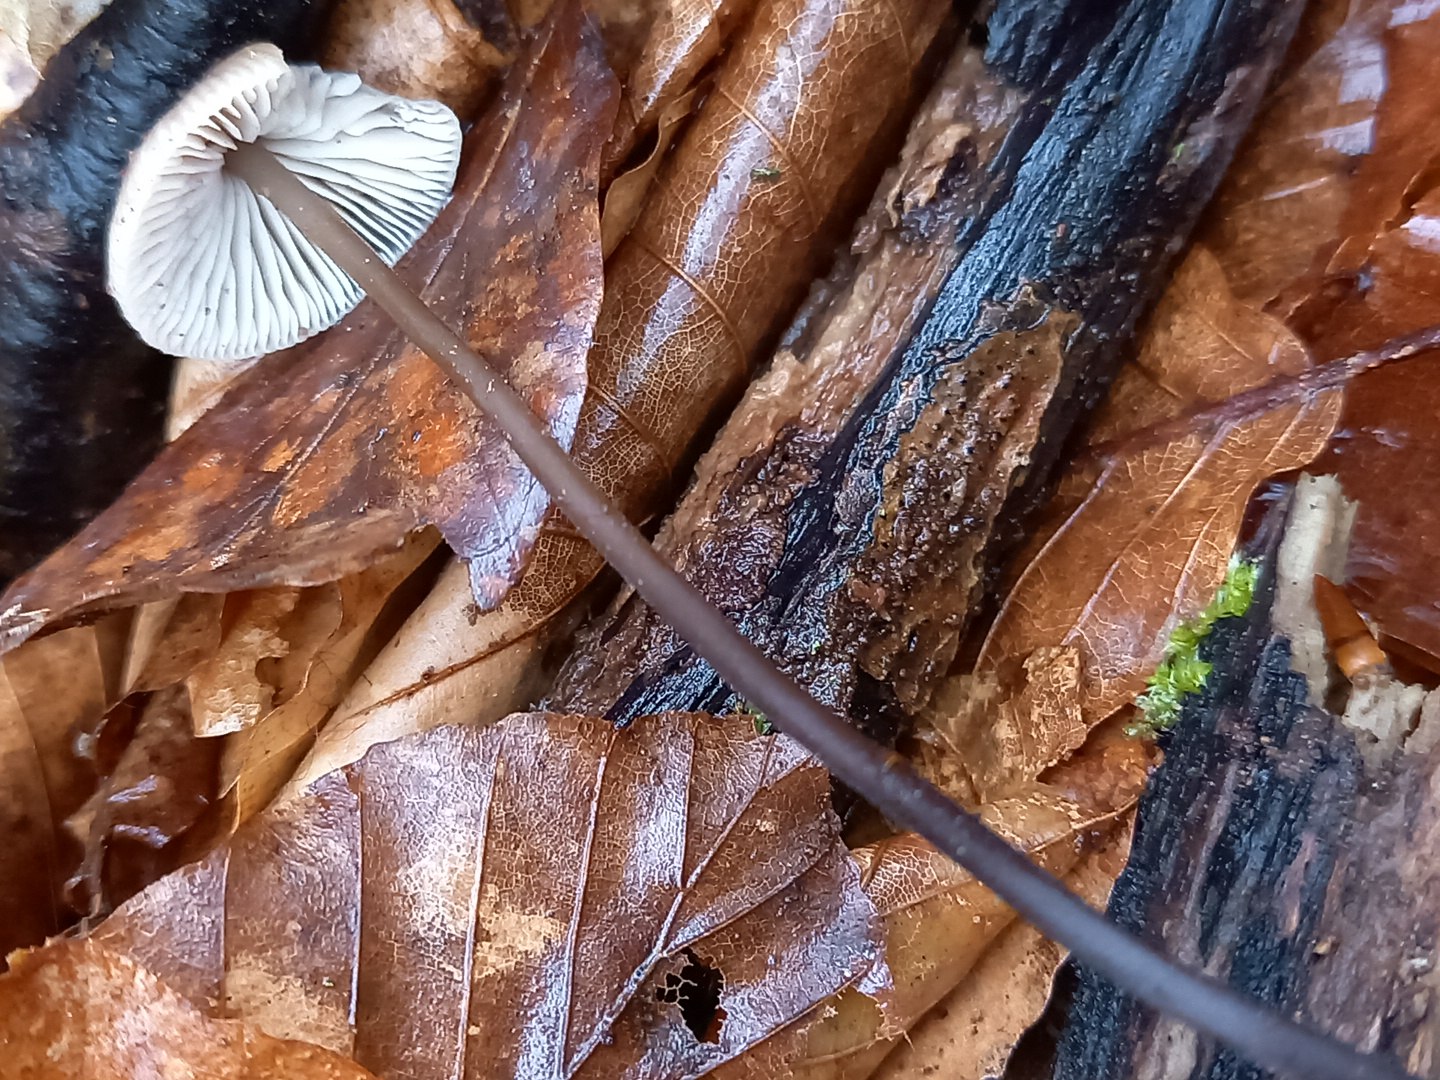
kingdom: Fungi
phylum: Basidiomycota
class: Agaricomycetes
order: Agaricales
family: Omphalotaceae
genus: Mycetinis
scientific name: Mycetinis alliaceus
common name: stor løghat
